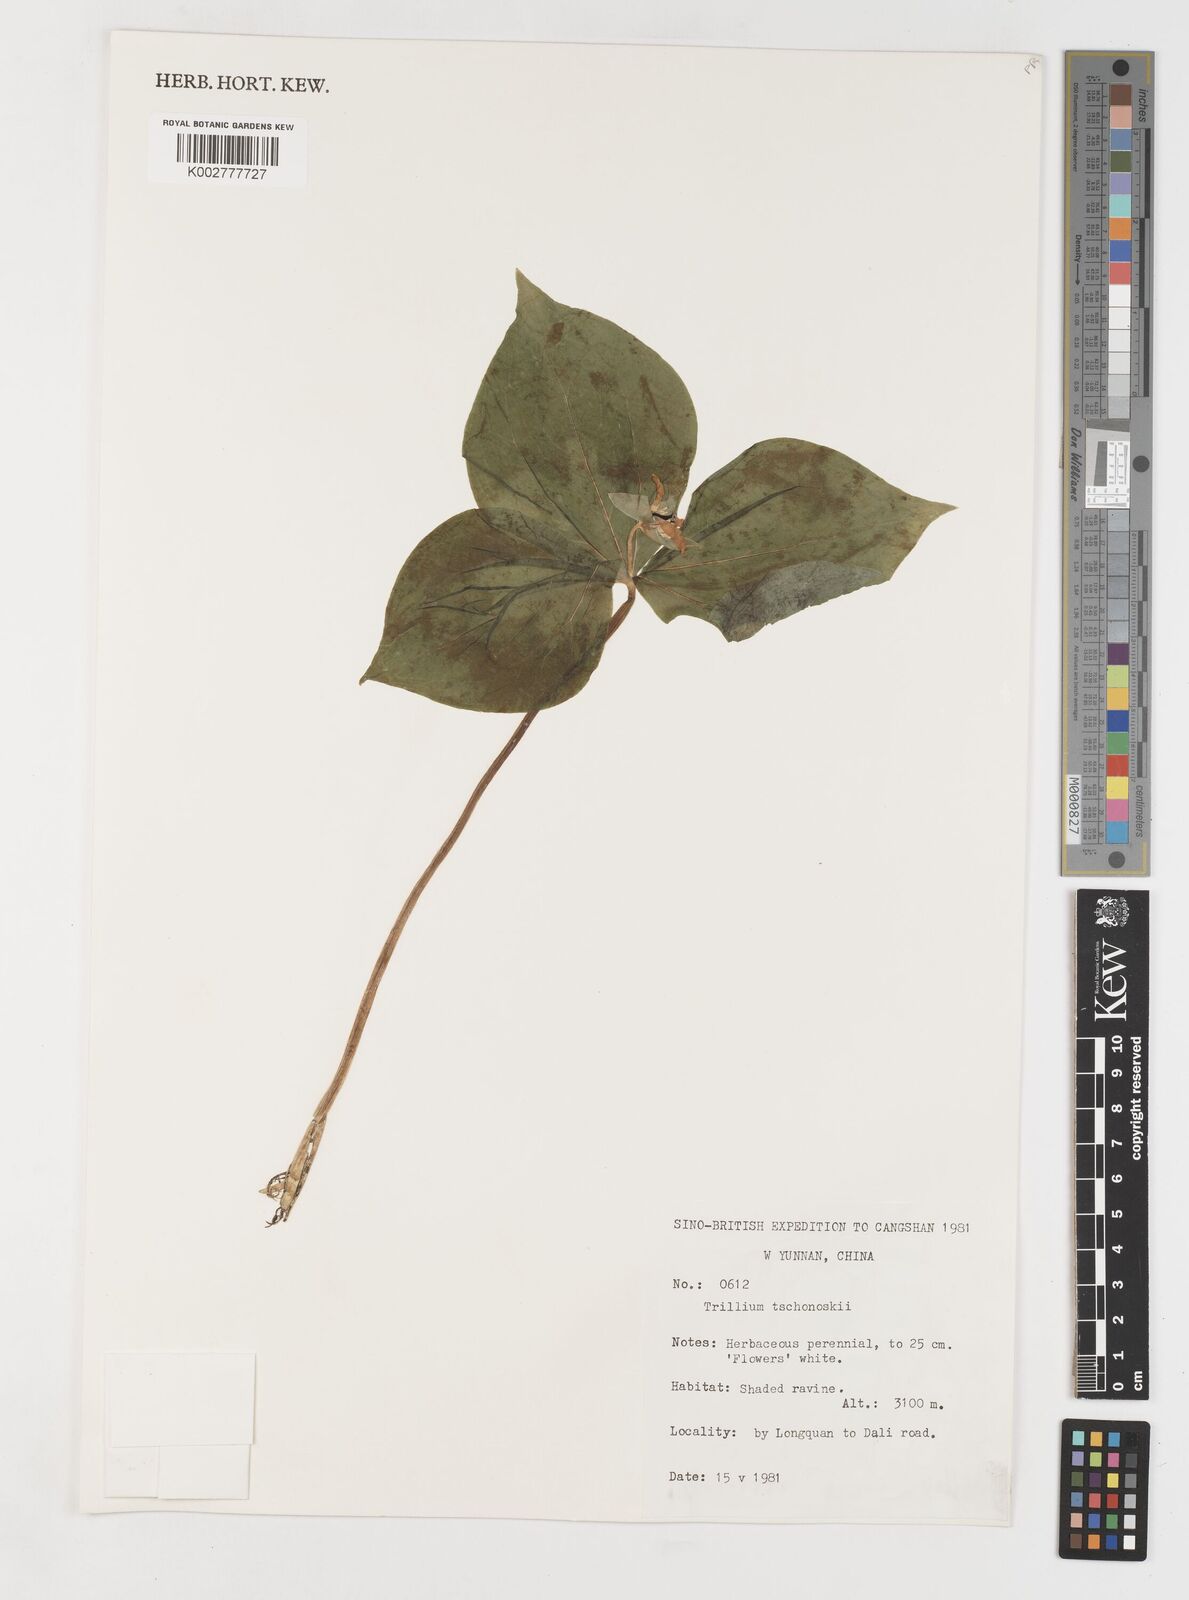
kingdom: Plantae
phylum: Tracheophyta
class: Liliopsida
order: Liliales
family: Melanthiaceae
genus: Trillium
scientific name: Trillium tschonoskii
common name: A pearl on head
